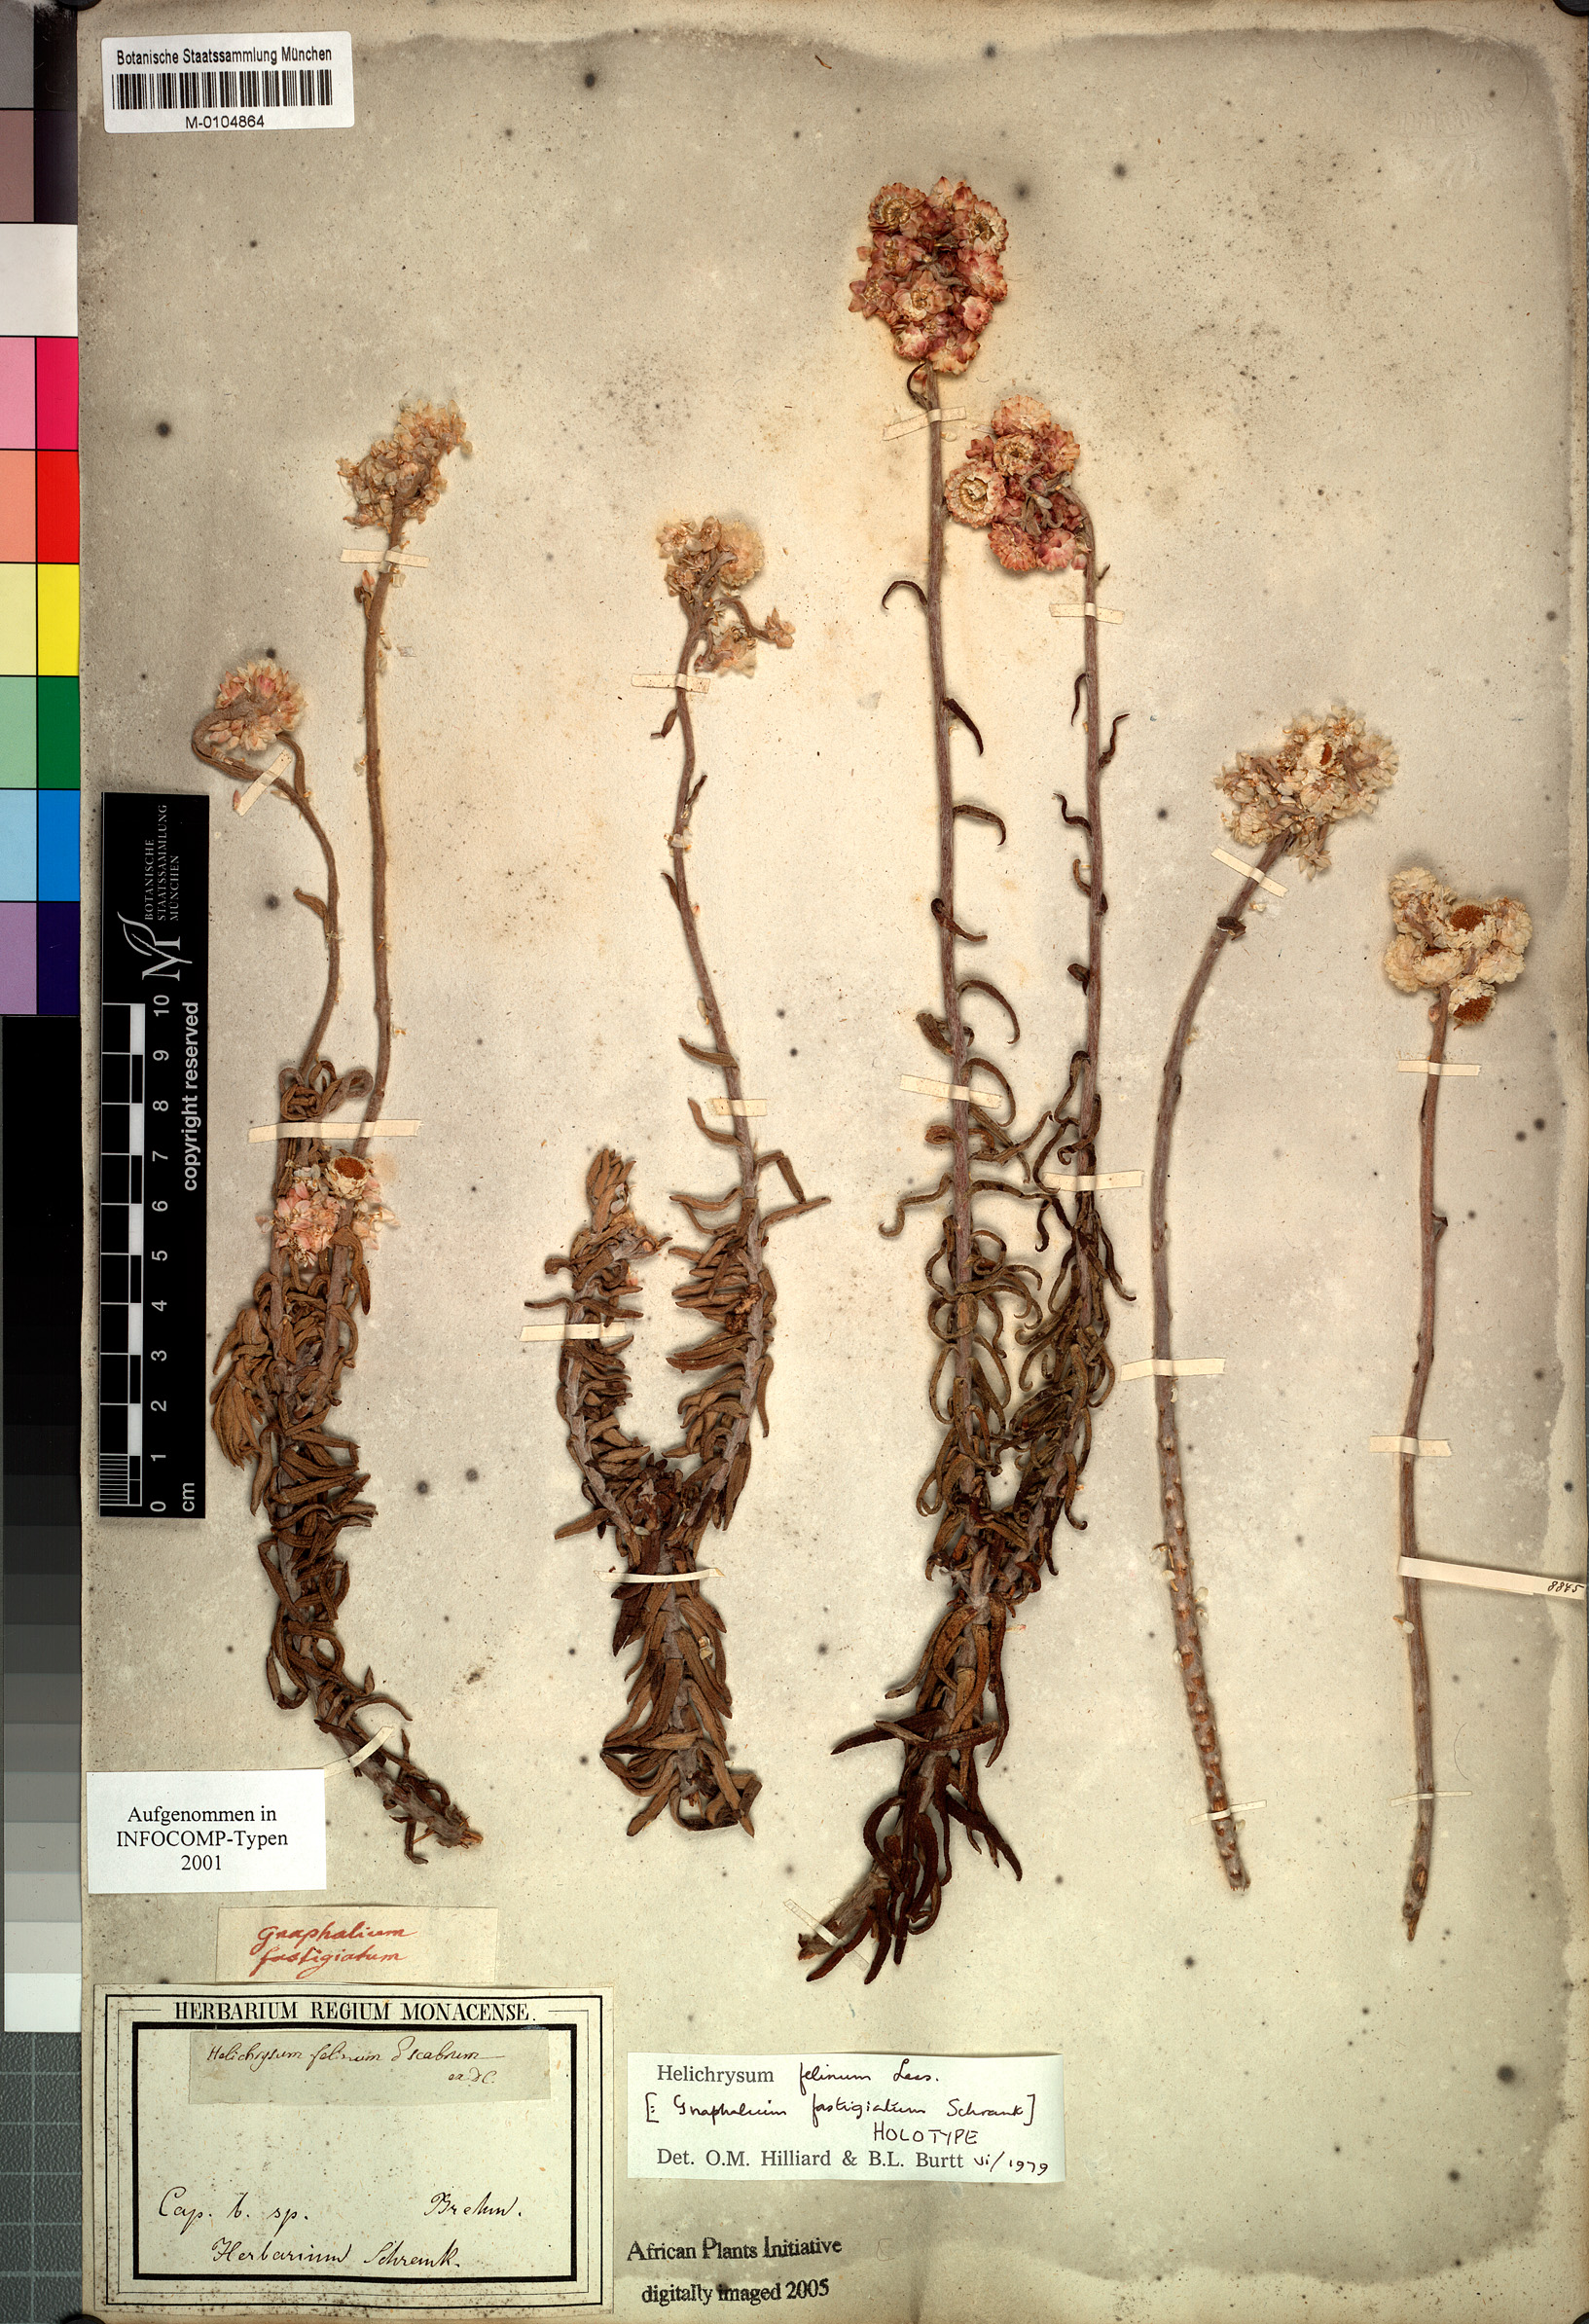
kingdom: Plantae
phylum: Tracheophyta
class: Magnoliopsida
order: Asterales
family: Asteraceae
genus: Helichrysum
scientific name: Helichrysum felinum
